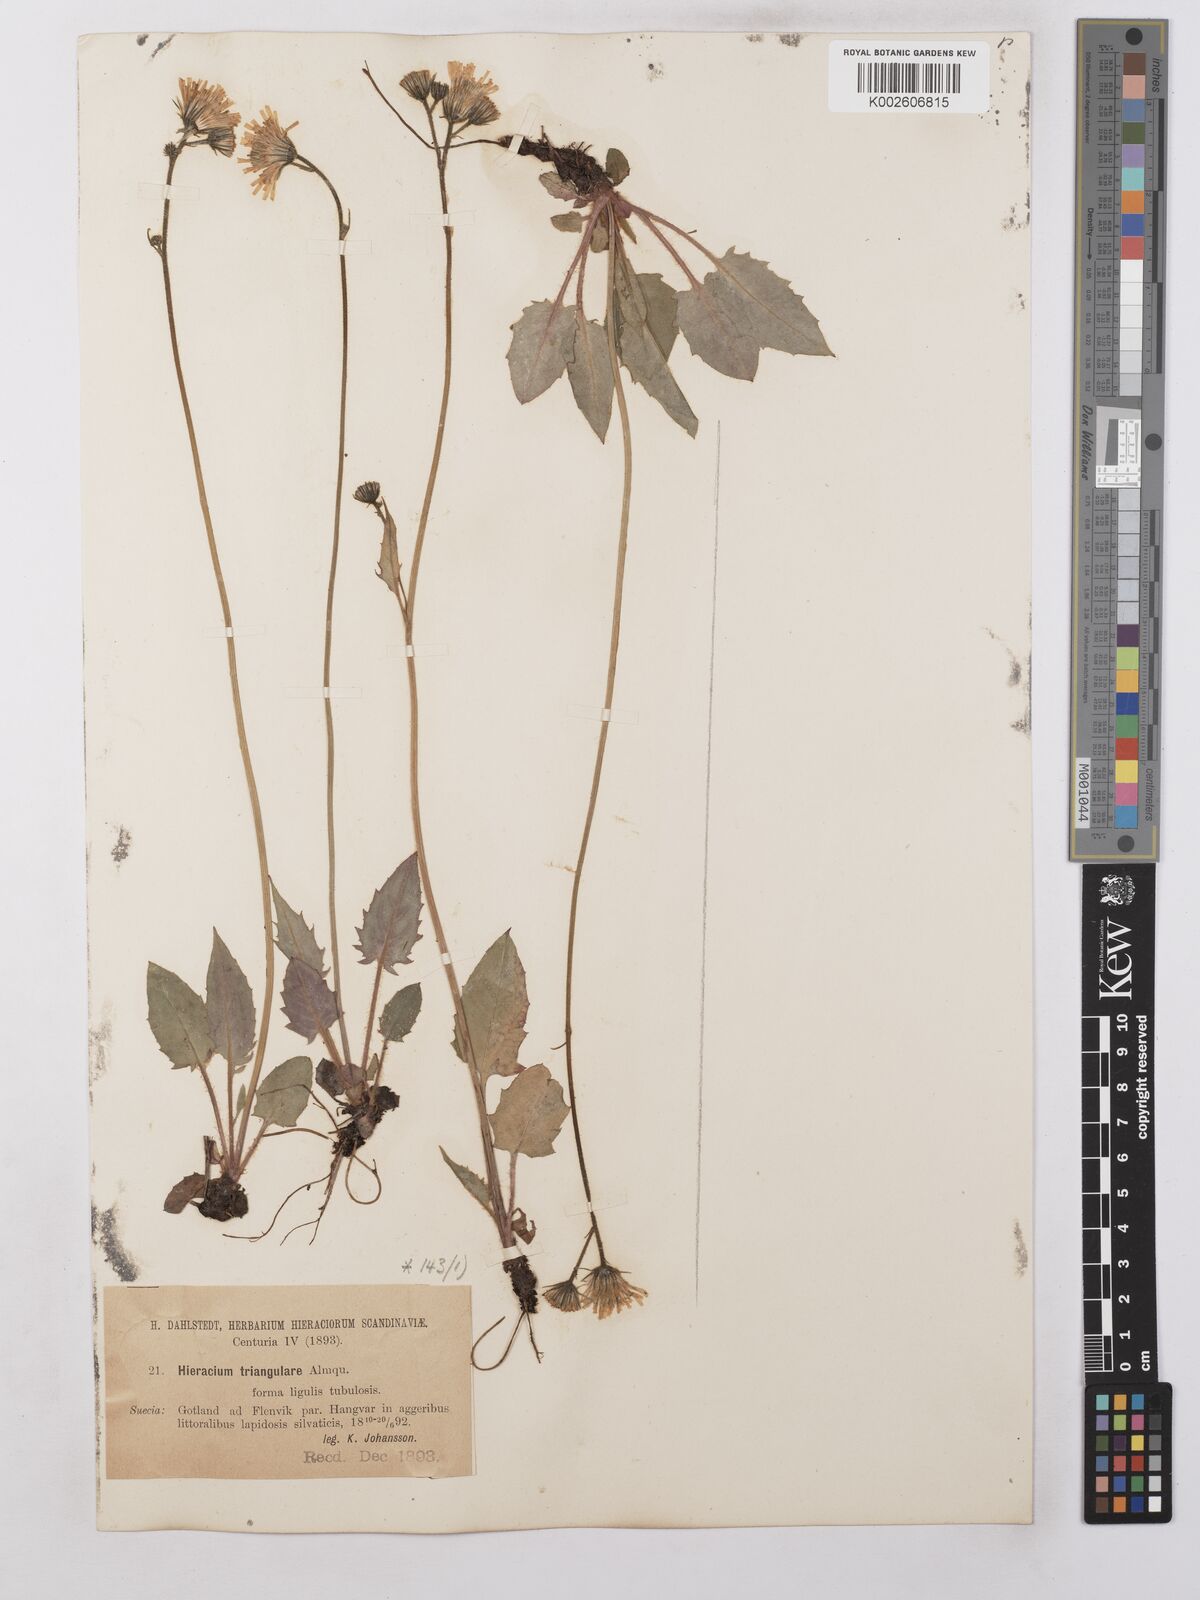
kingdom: Plantae
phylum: Tracheophyta
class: Magnoliopsida
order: Asterales
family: Asteraceae
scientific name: Asteraceae
